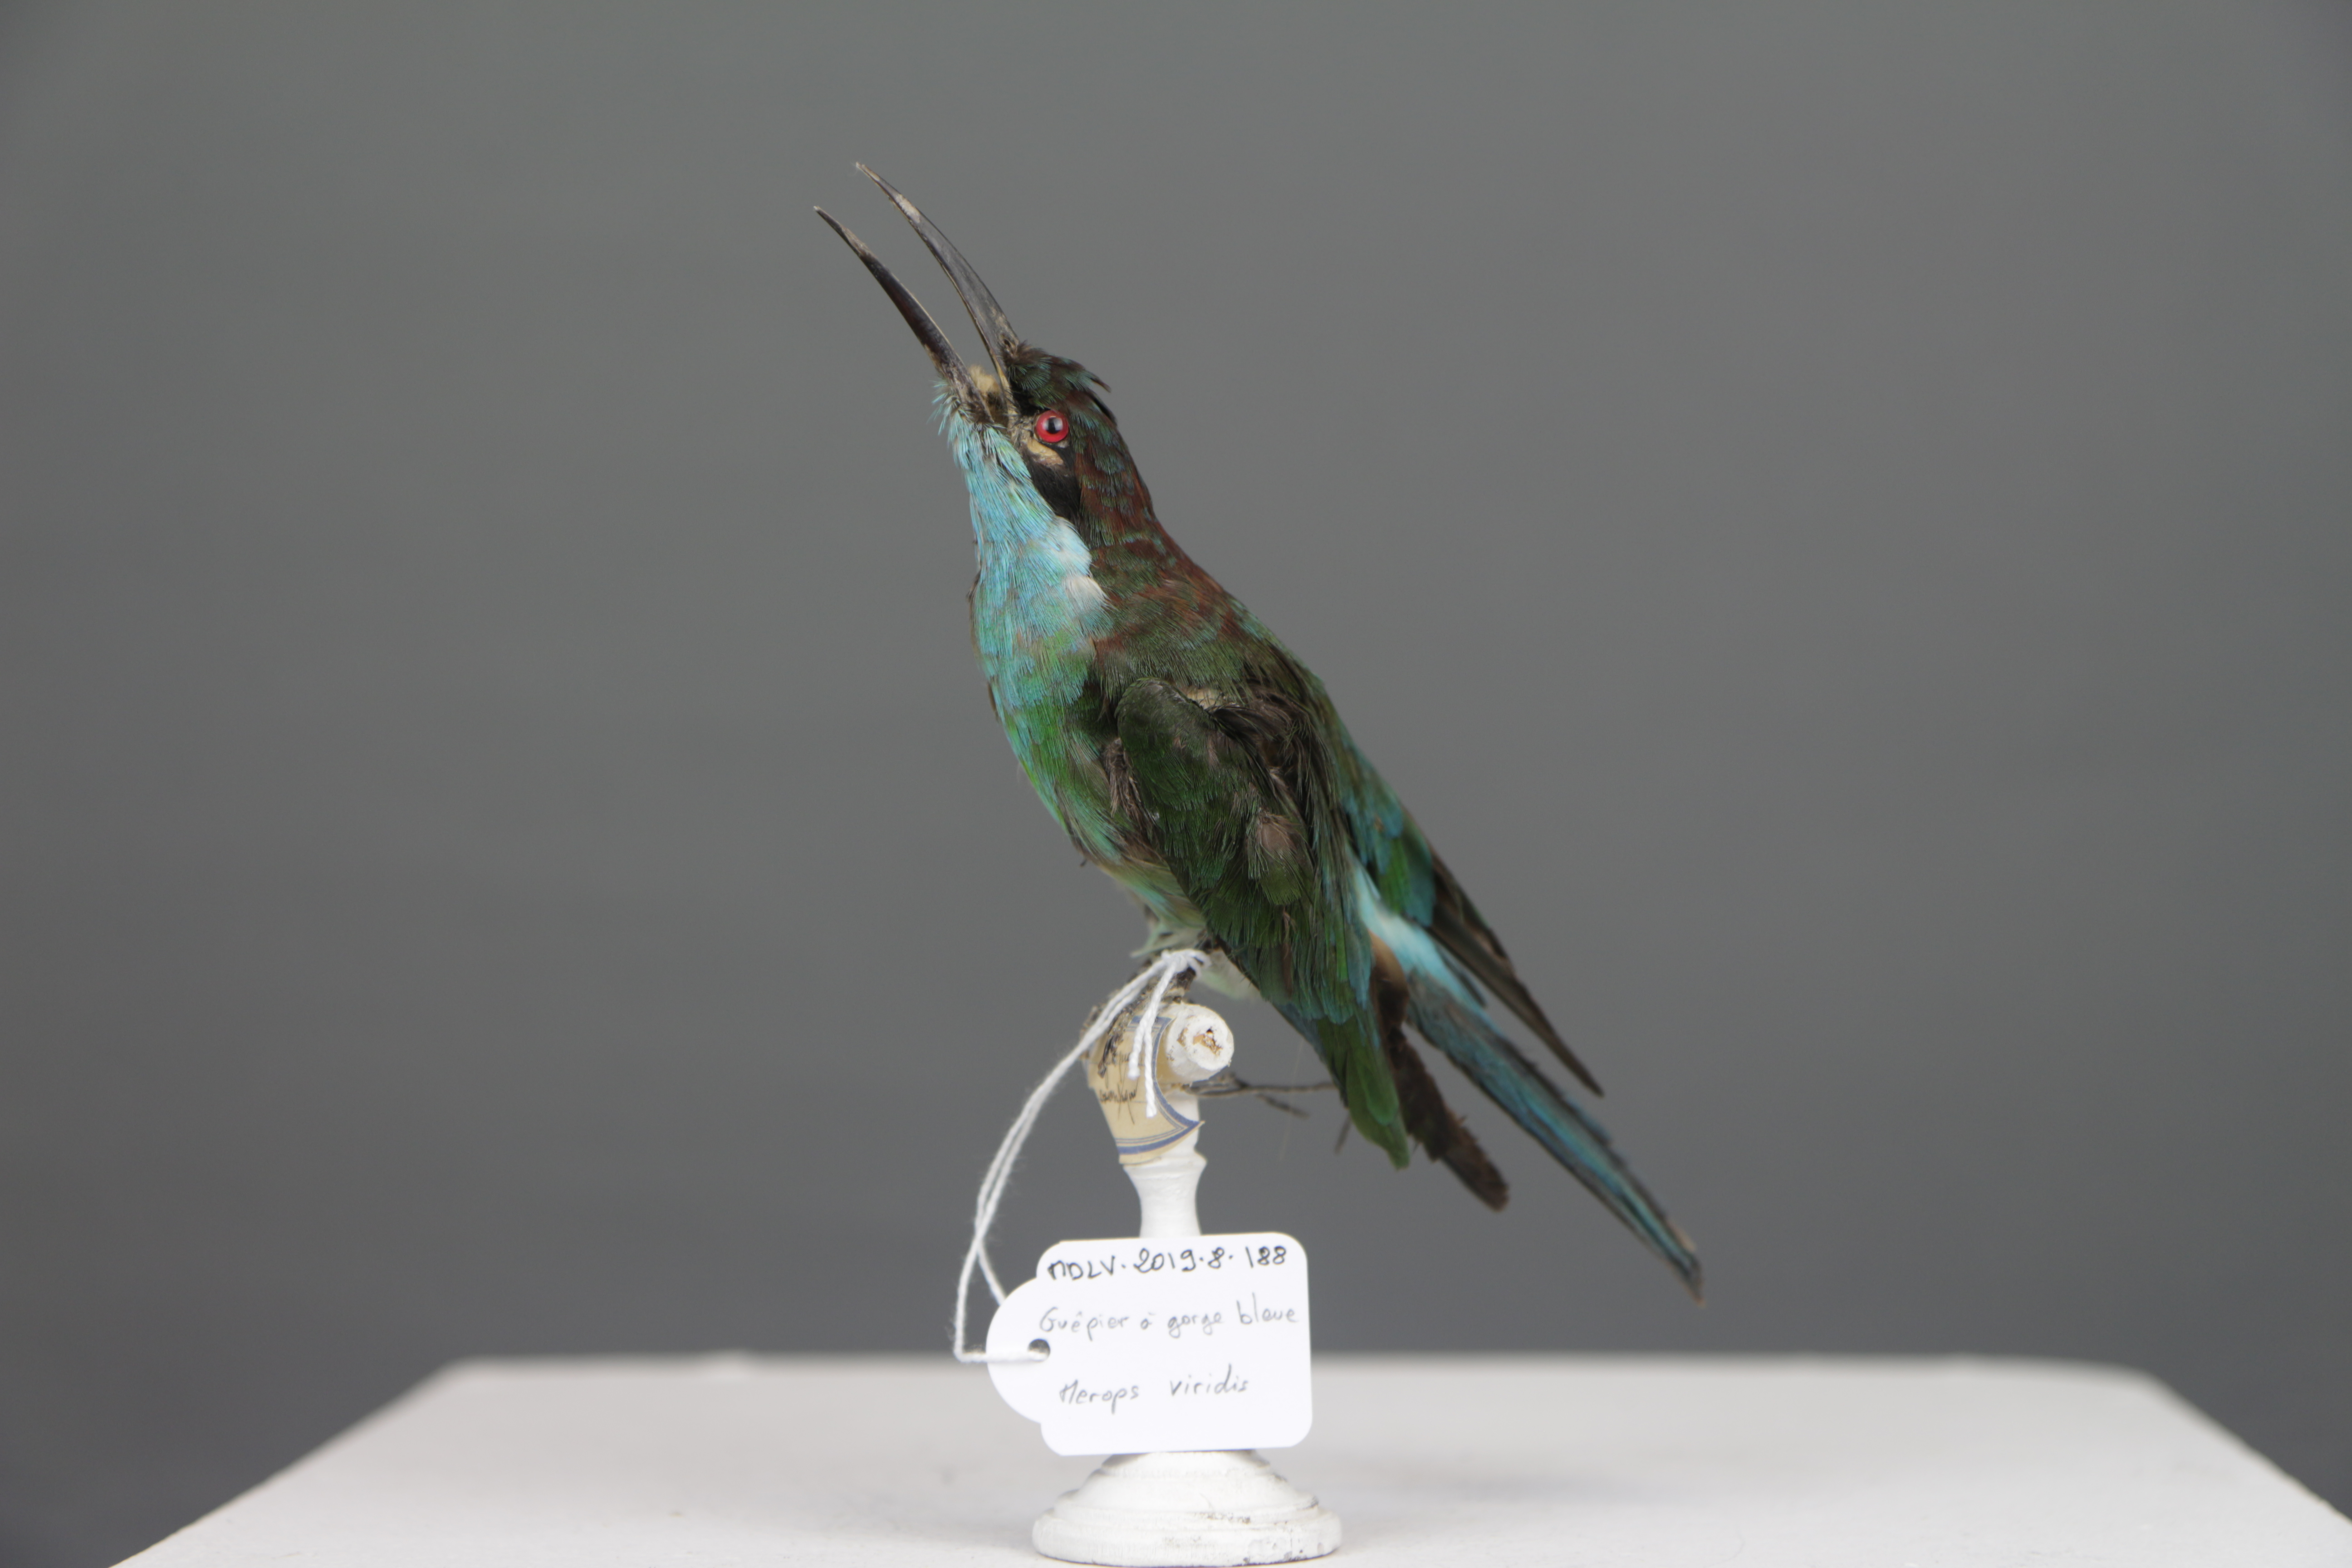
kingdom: Animalia
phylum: Chordata
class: Aves
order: Coraciiformes
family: Meropidae
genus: Merops
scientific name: Merops viridis
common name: Blue-throated bee-eater
